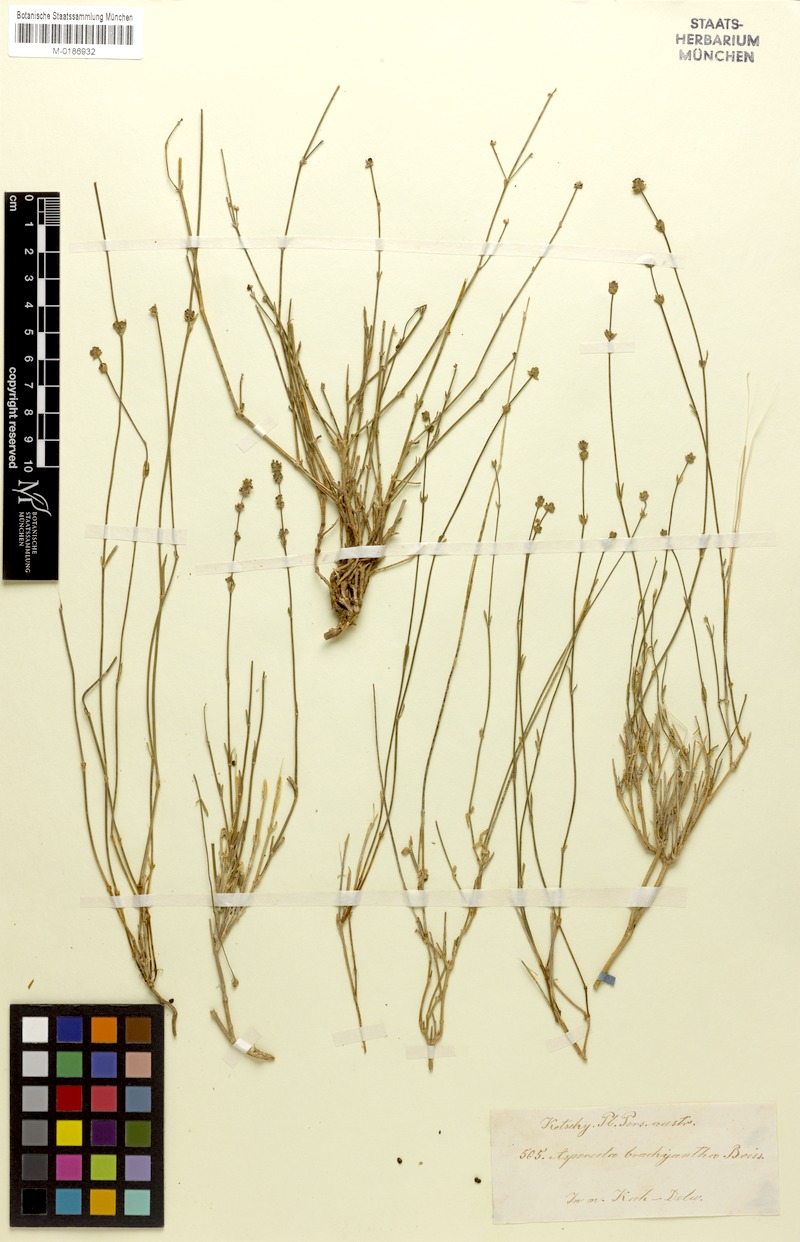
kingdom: Plantae
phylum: Tracheophyta
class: Magnoliopsida
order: Gentianales
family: Rubiaceae
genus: Asperula
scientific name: Asperula brachyantha
